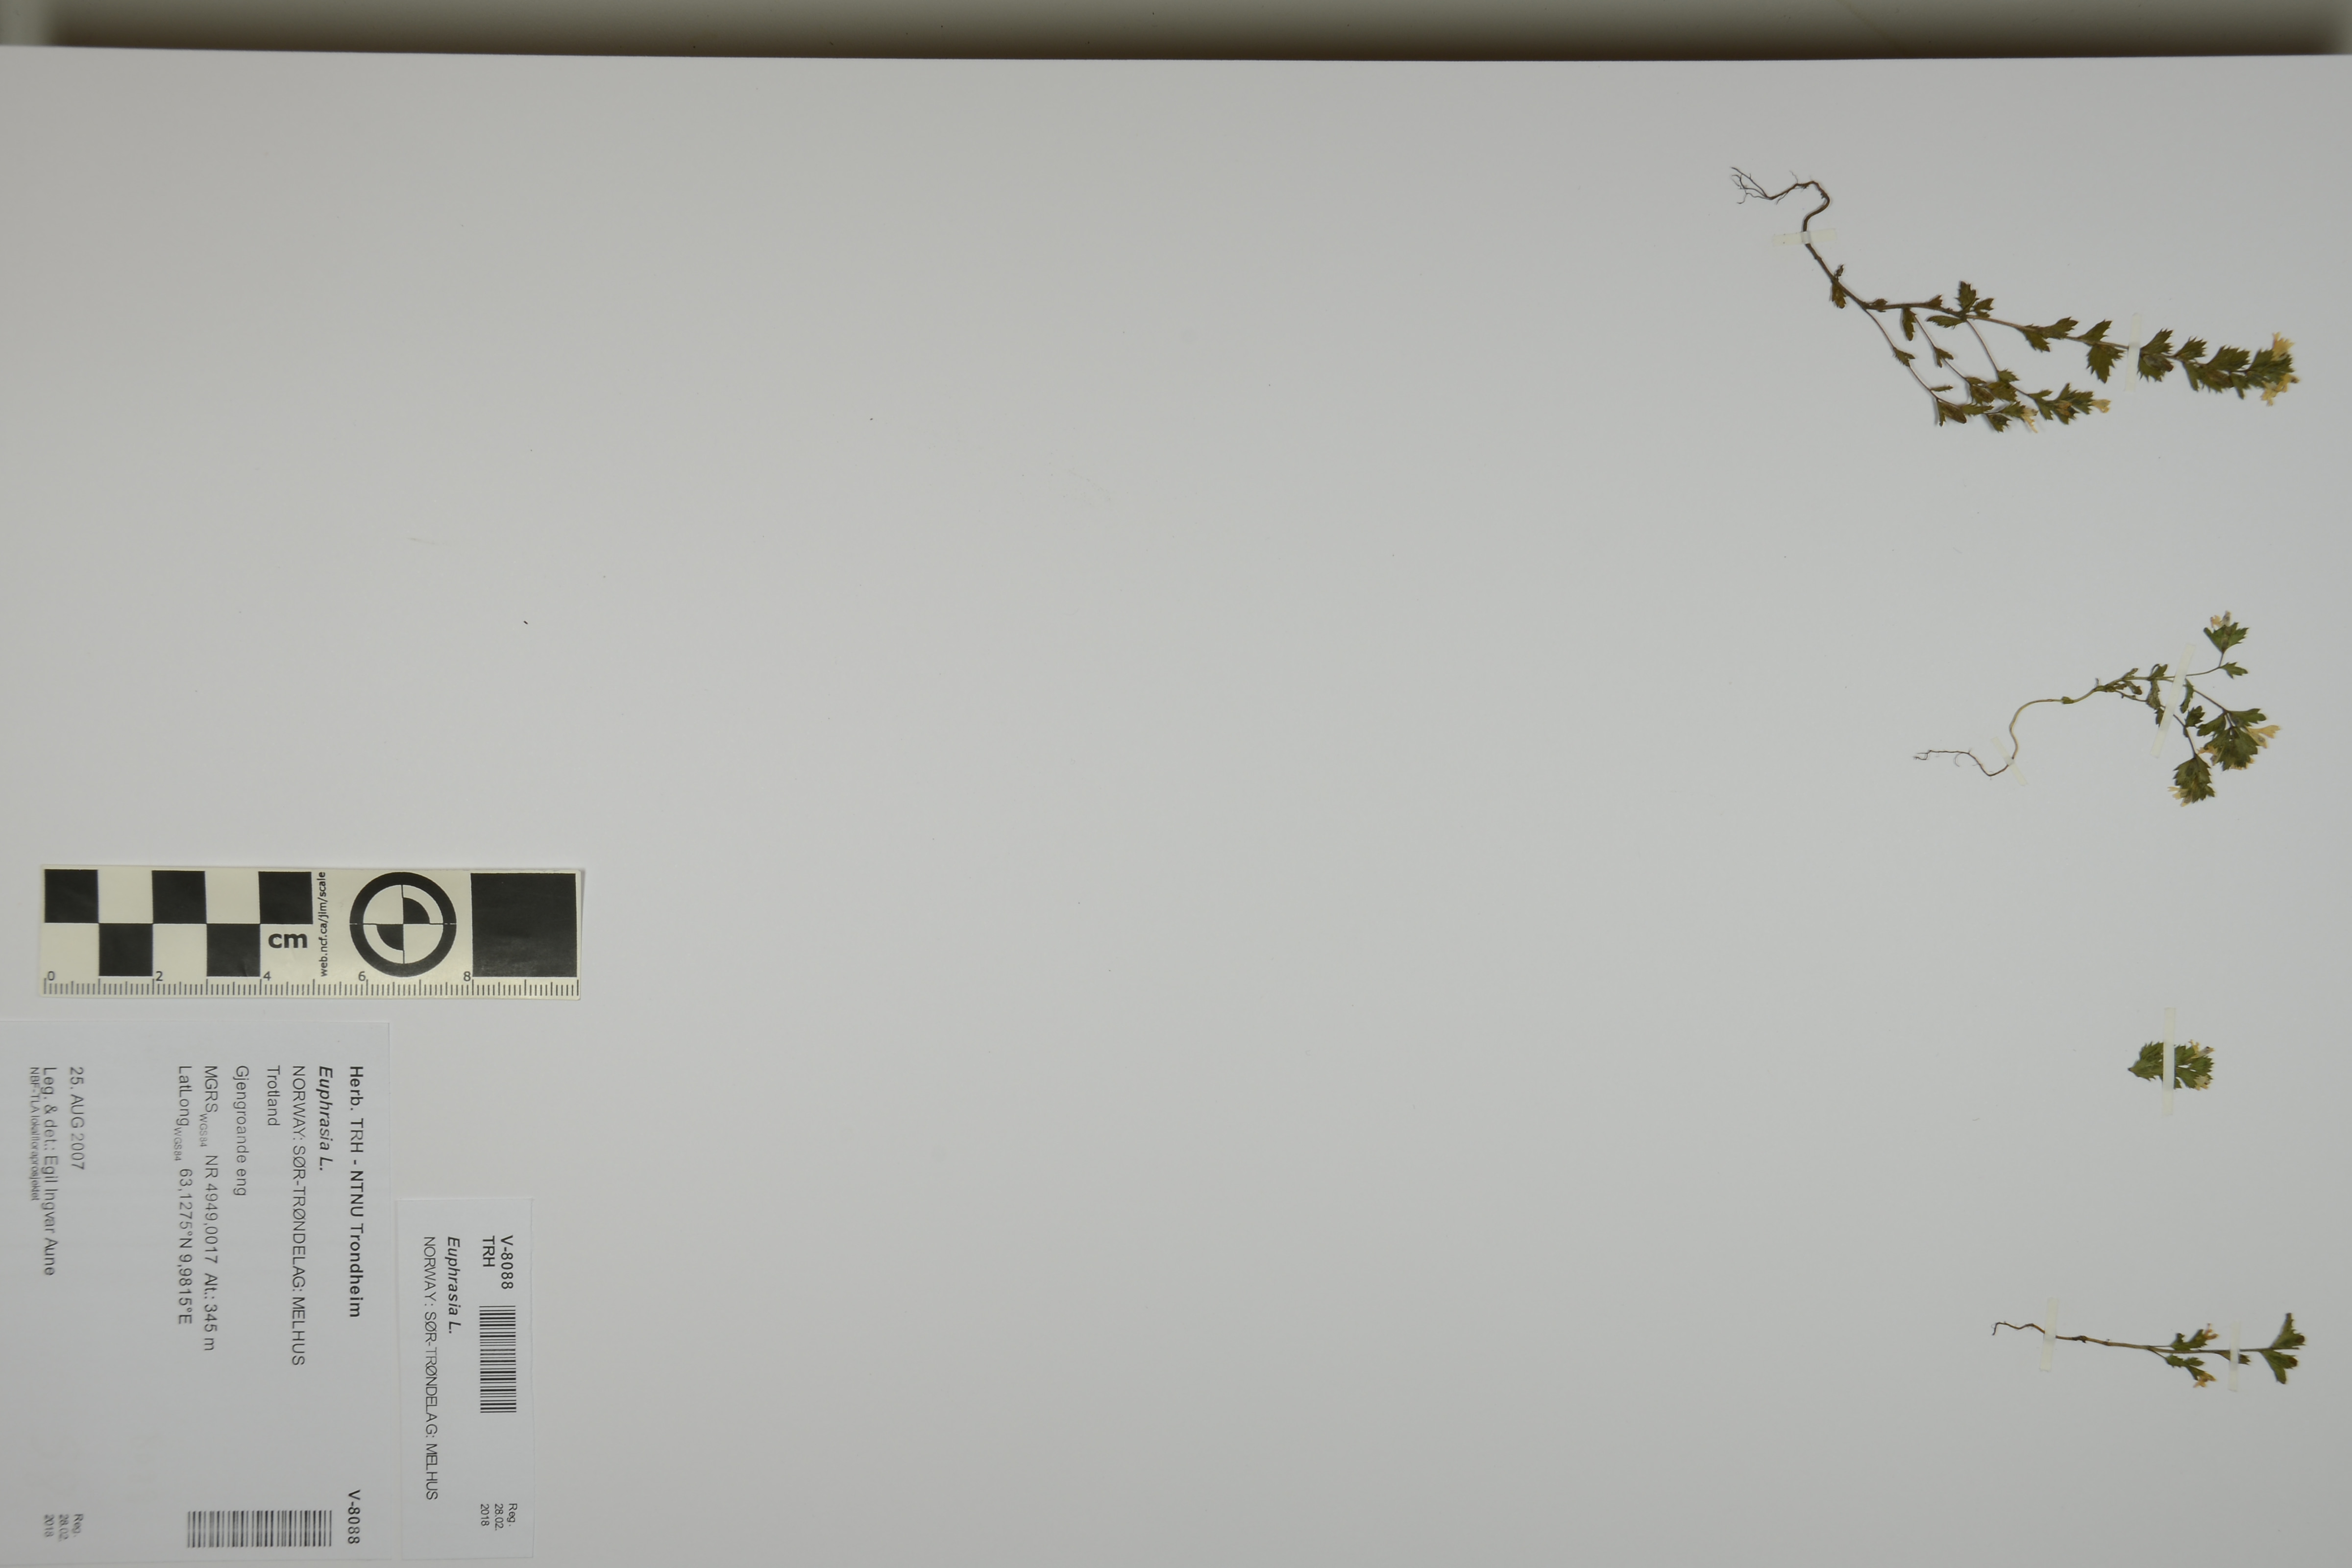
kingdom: Plantae
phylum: Tracheophyta
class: Magnoliopsida
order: Lamiales
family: Orobanchaceae
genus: Euphrasia
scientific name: Euphrasia
